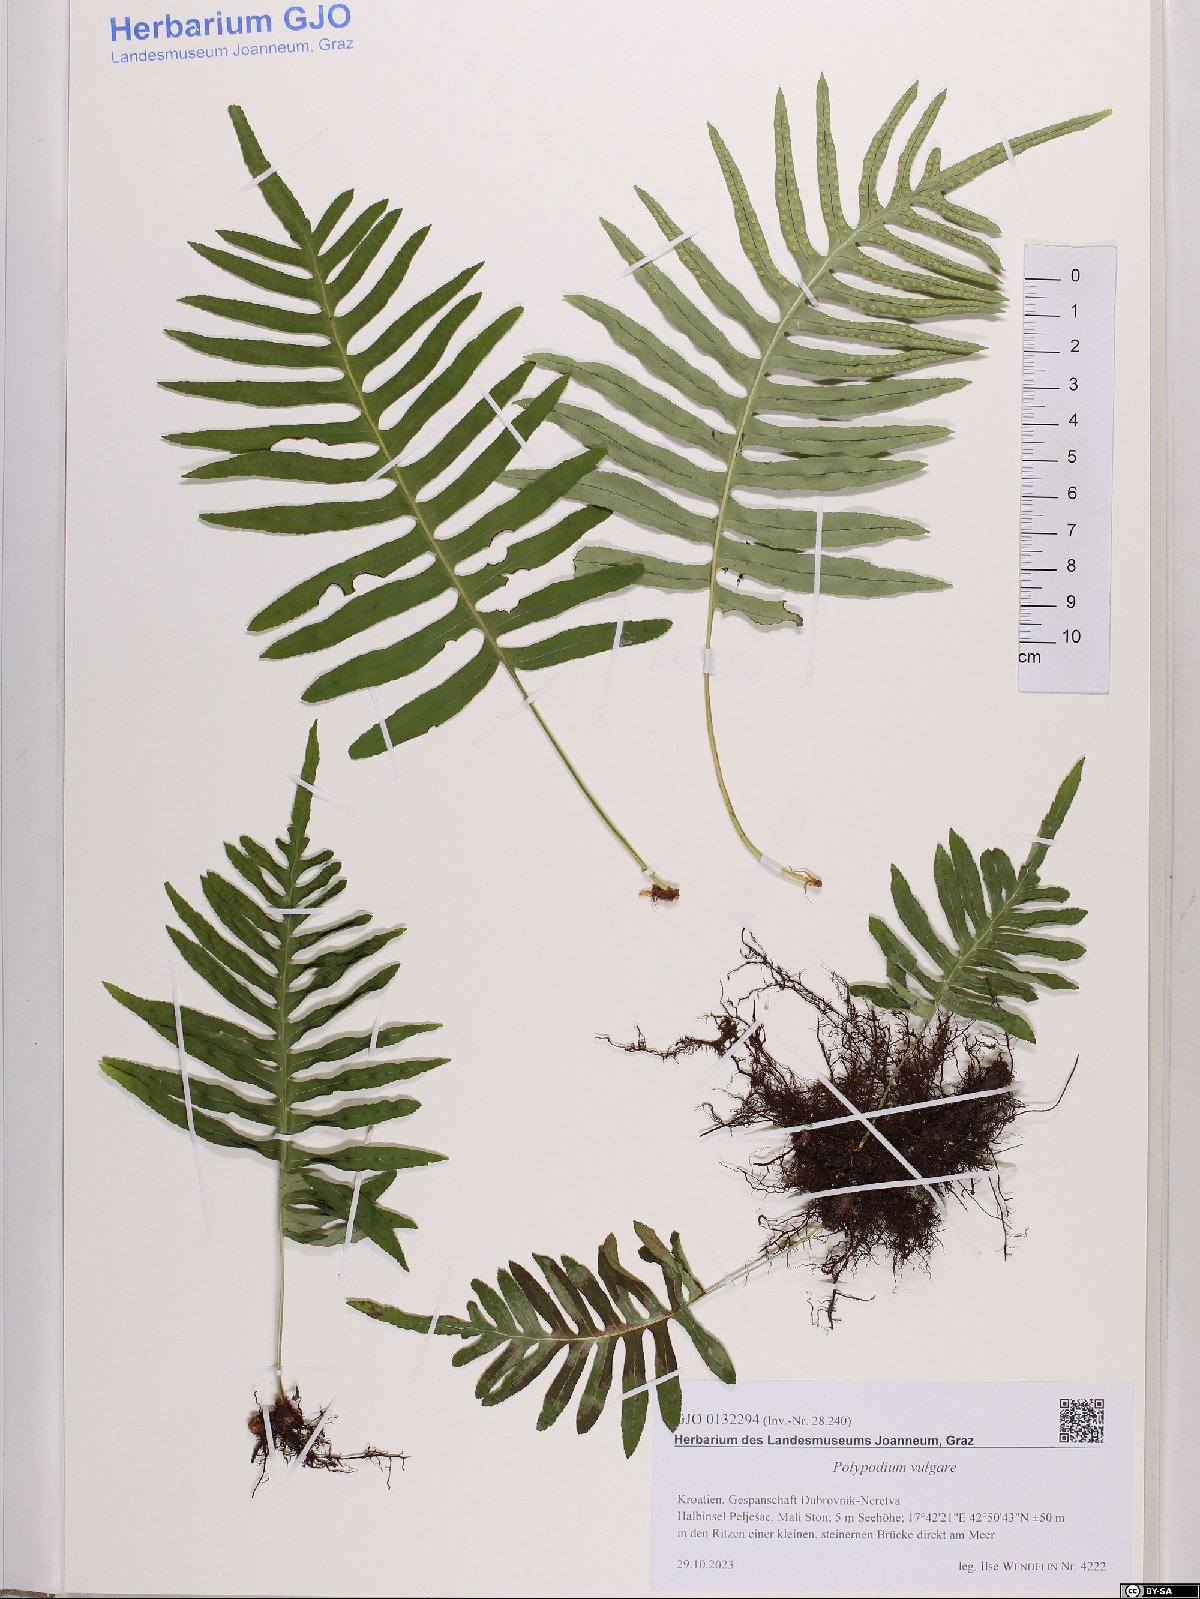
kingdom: Plantae
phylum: Tracheophyta
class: Polypodiopsida
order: Polypodiales
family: Polypodiaceae
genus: Polypodium
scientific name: Polypodium vulgare
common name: Common polypody
